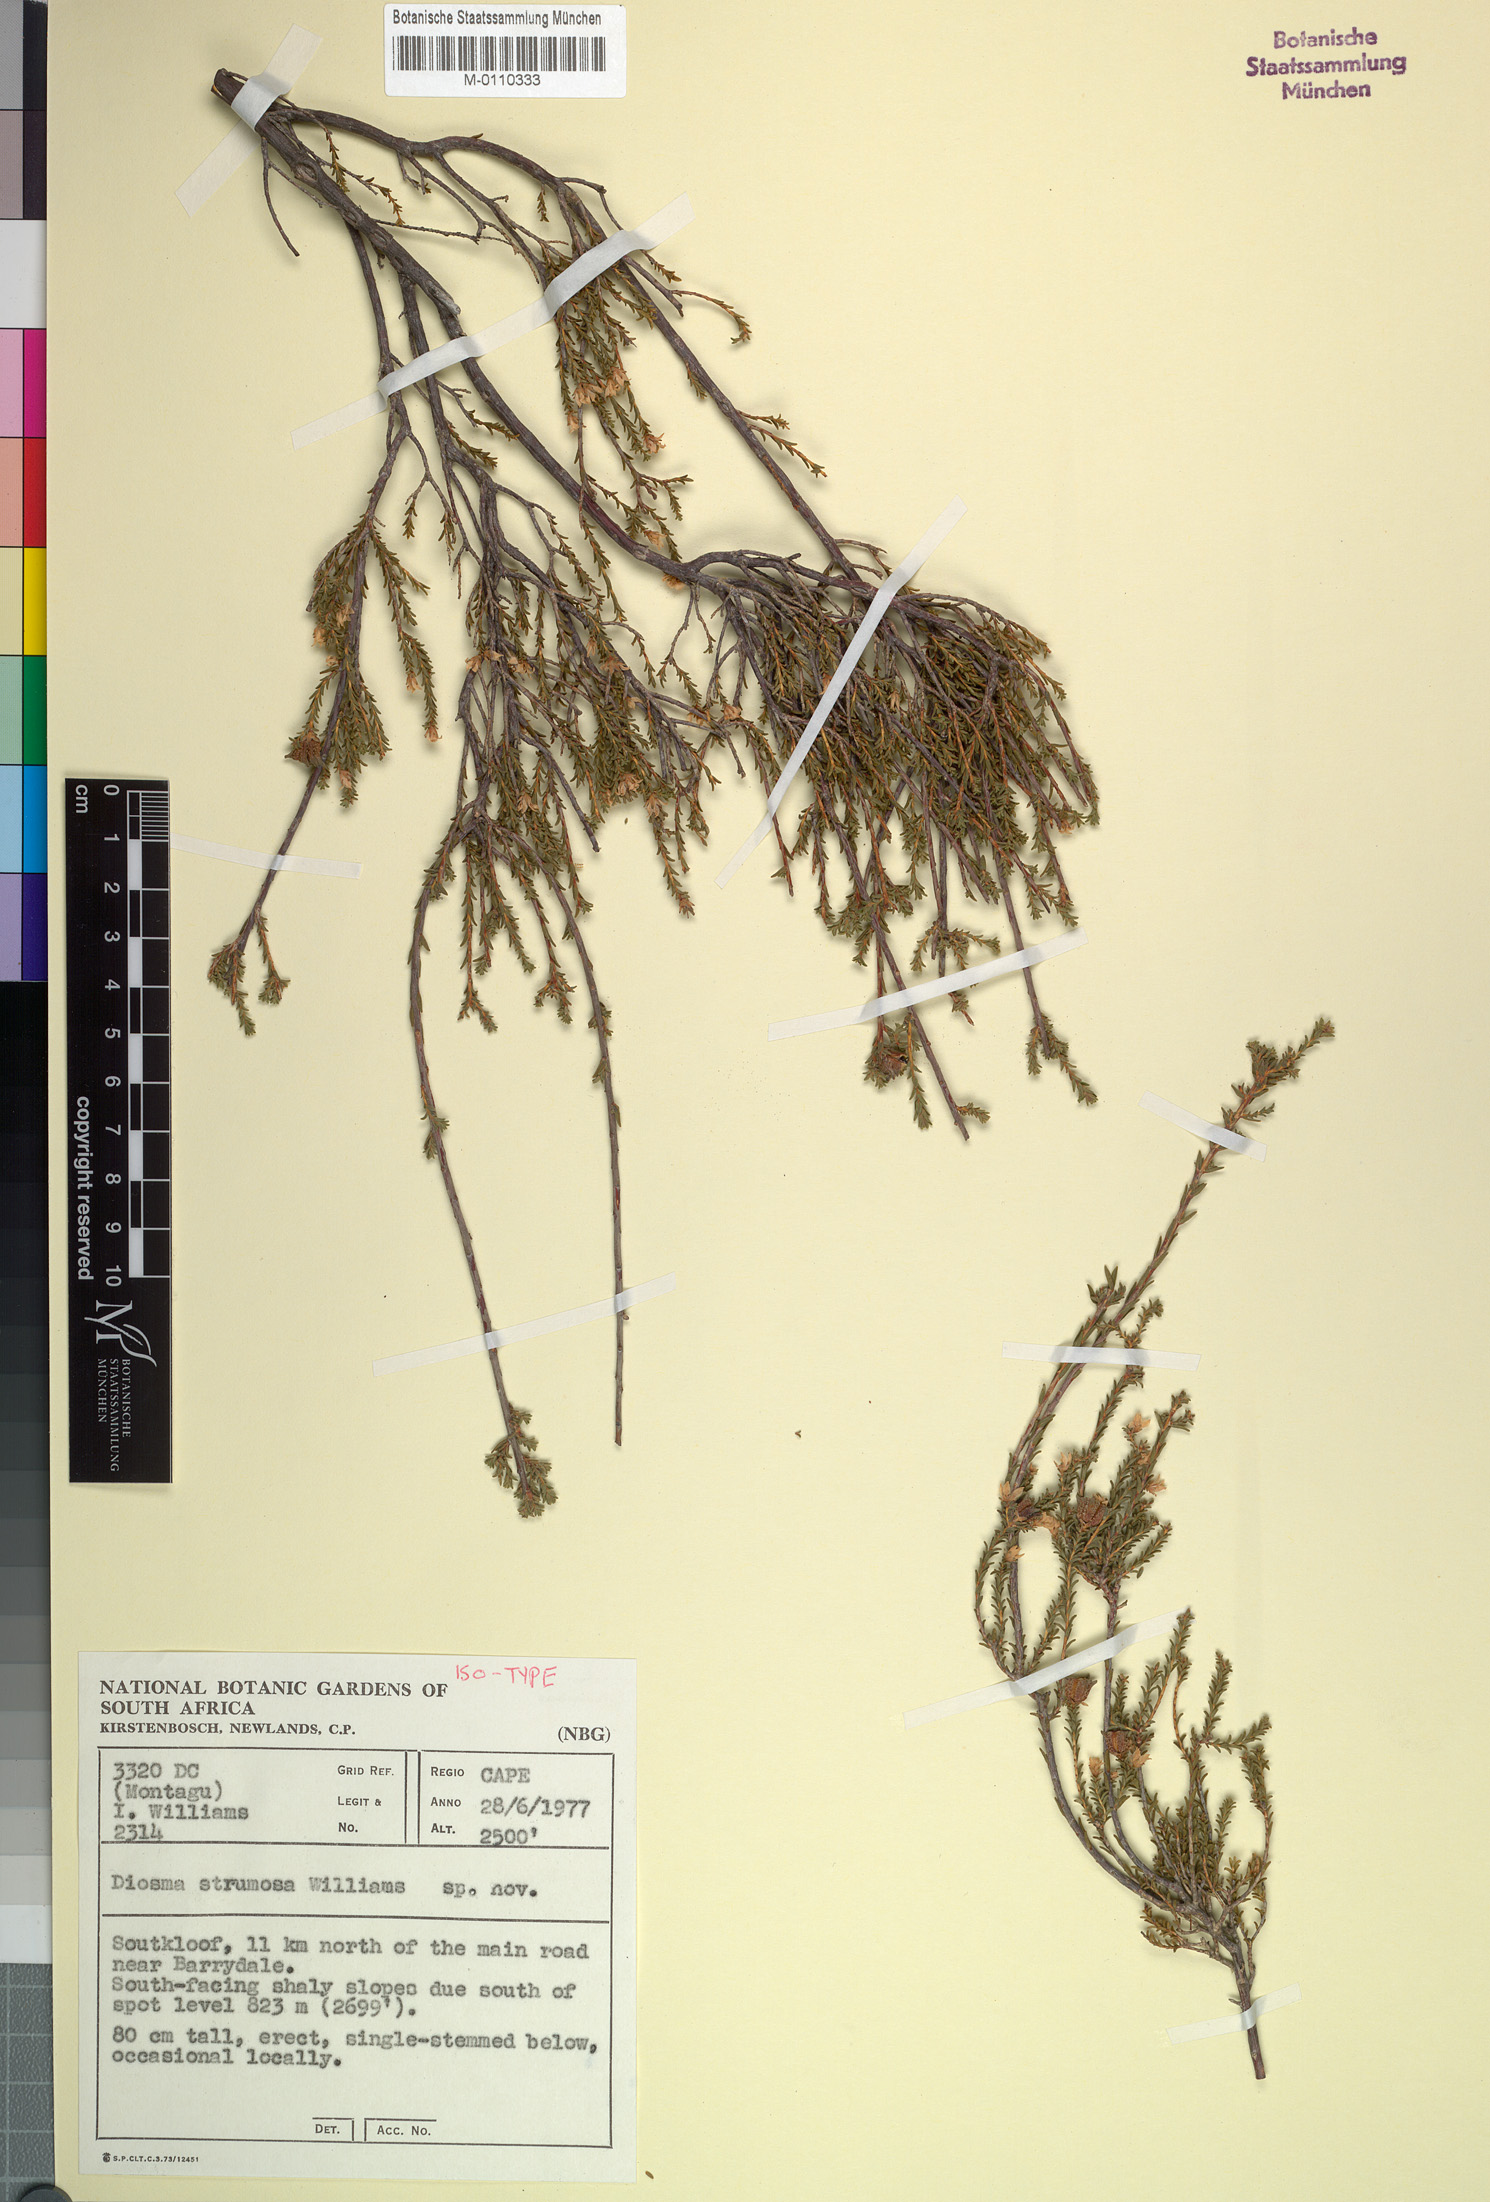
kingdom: Plantae
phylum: Tracheophyta
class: Magnoliopsida
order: Sapindales
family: Rutaceae
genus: Diosma
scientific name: Diosma strumosa
